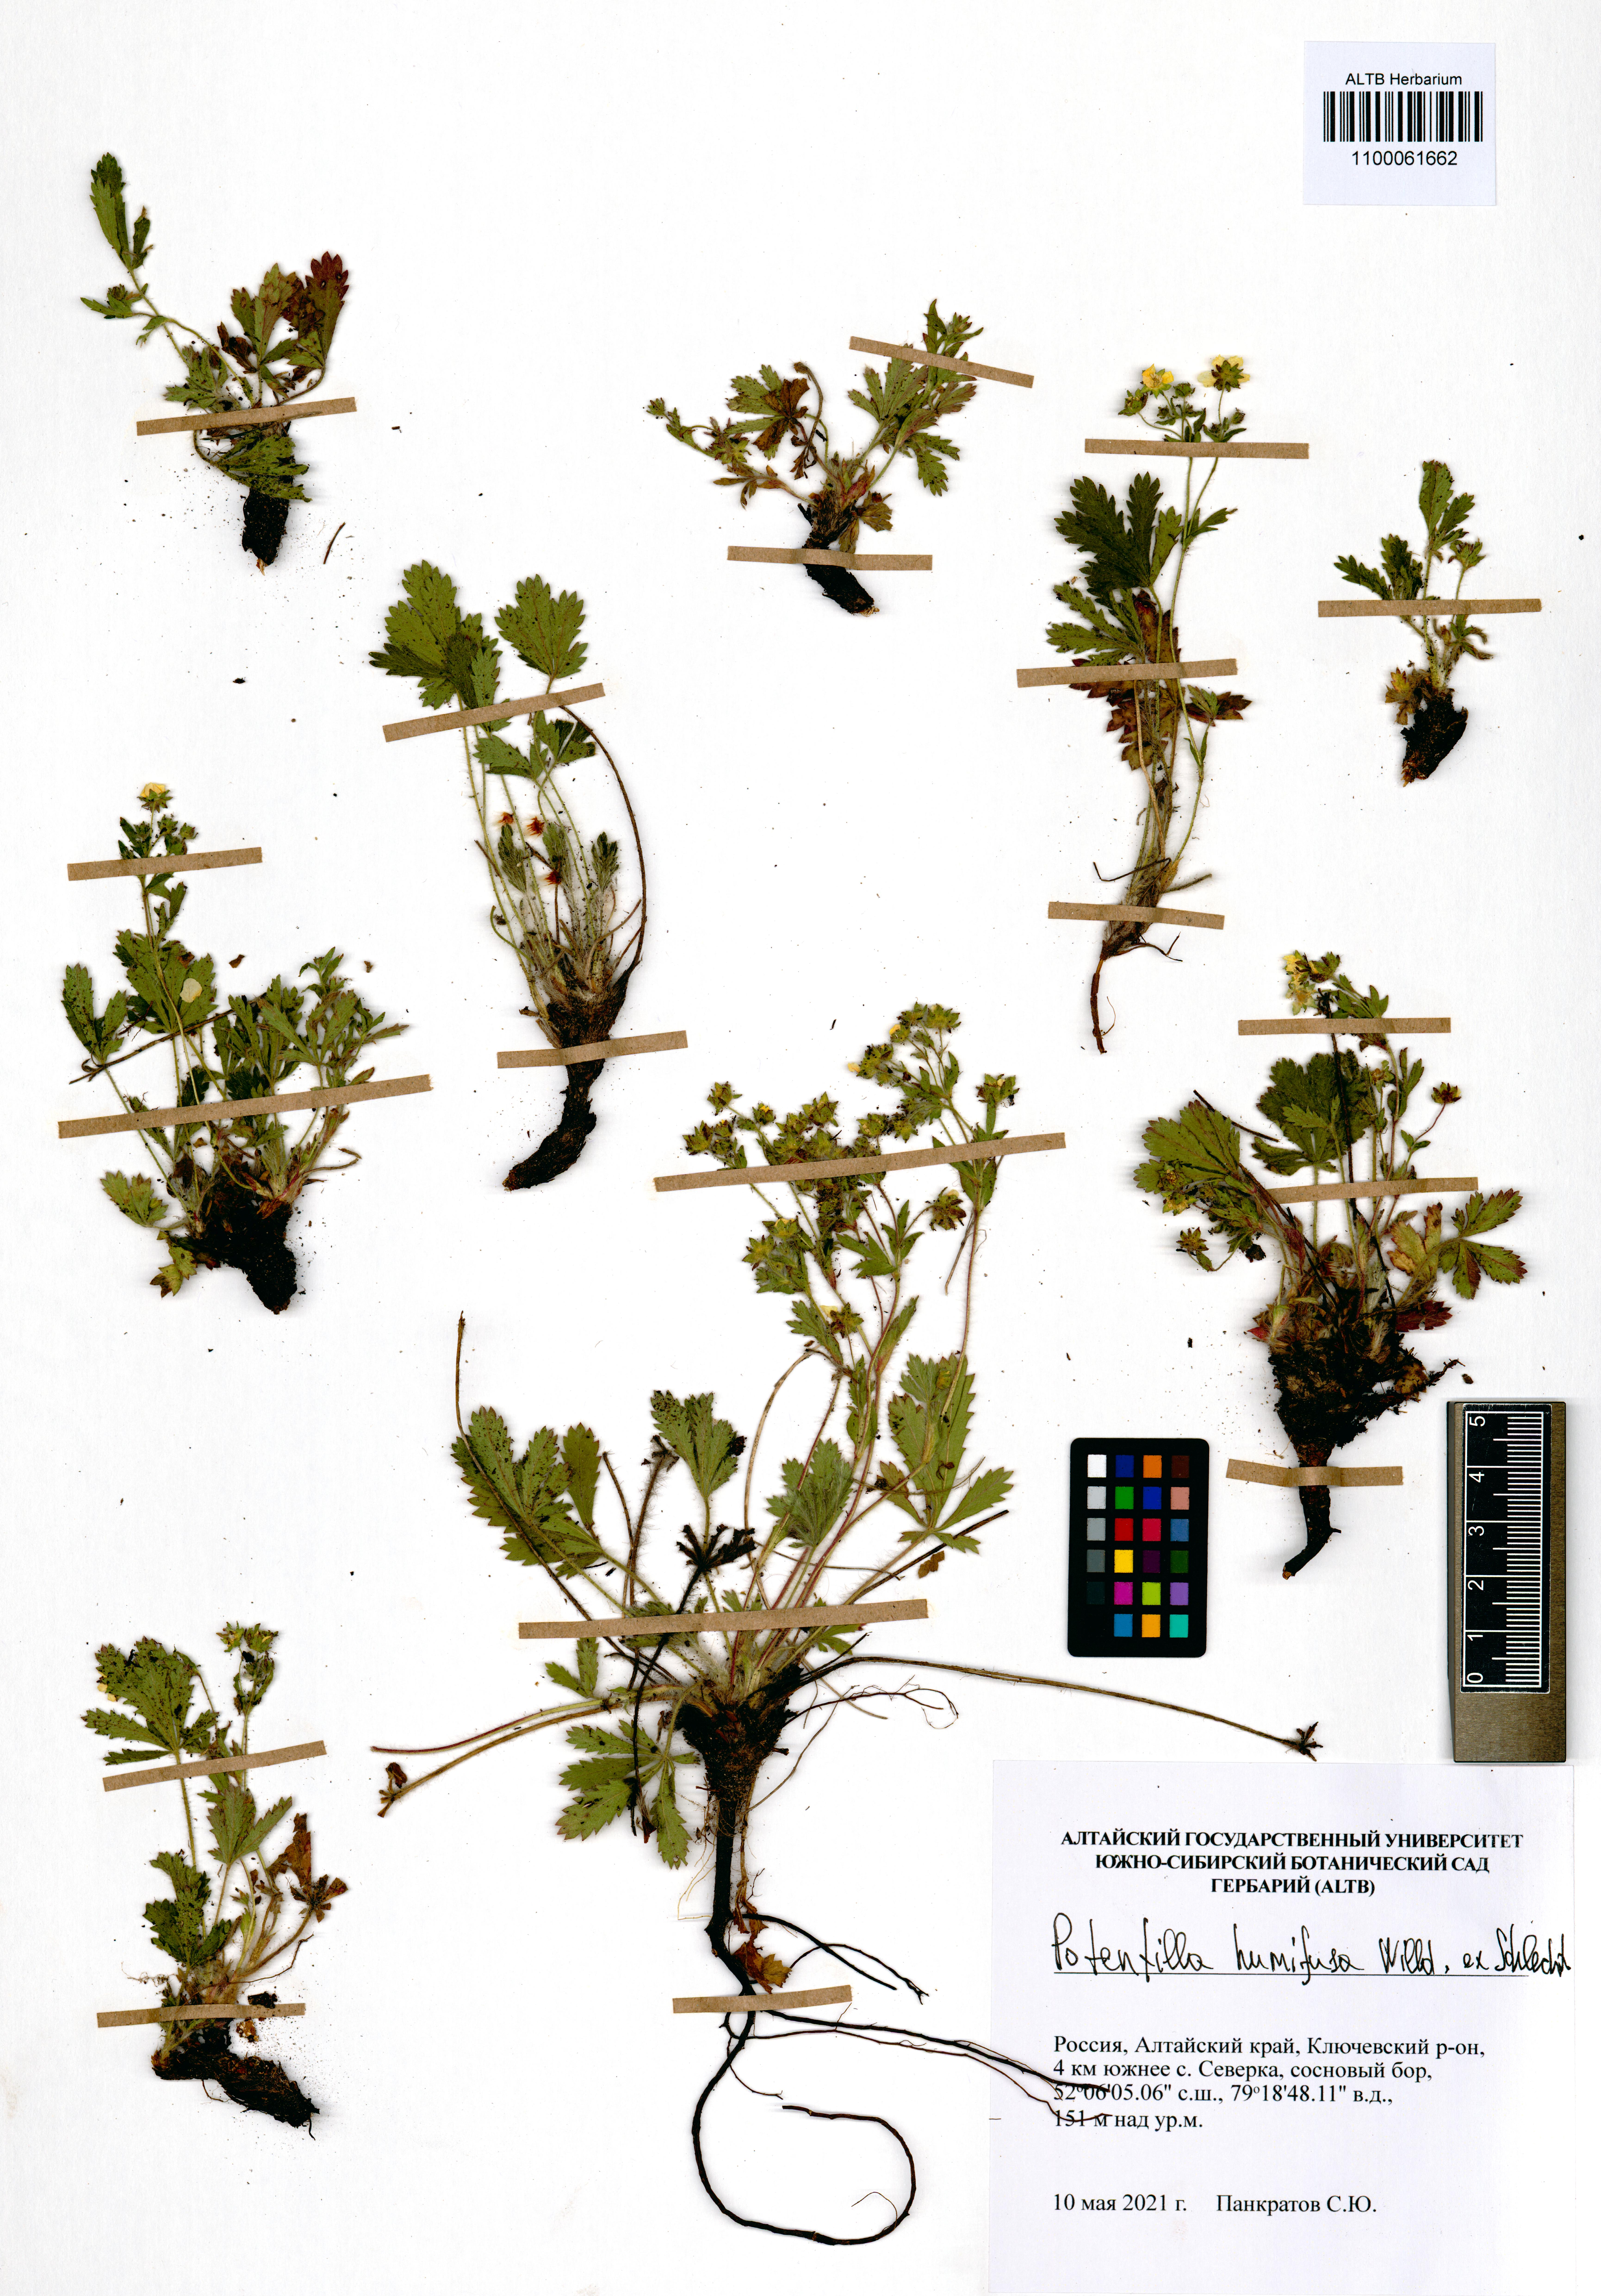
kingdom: Plantae
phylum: Tracheophyta
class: Magnoliopsida
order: Rosales
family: Rosaceae
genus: Potentilla
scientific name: Potentilla humifusa
